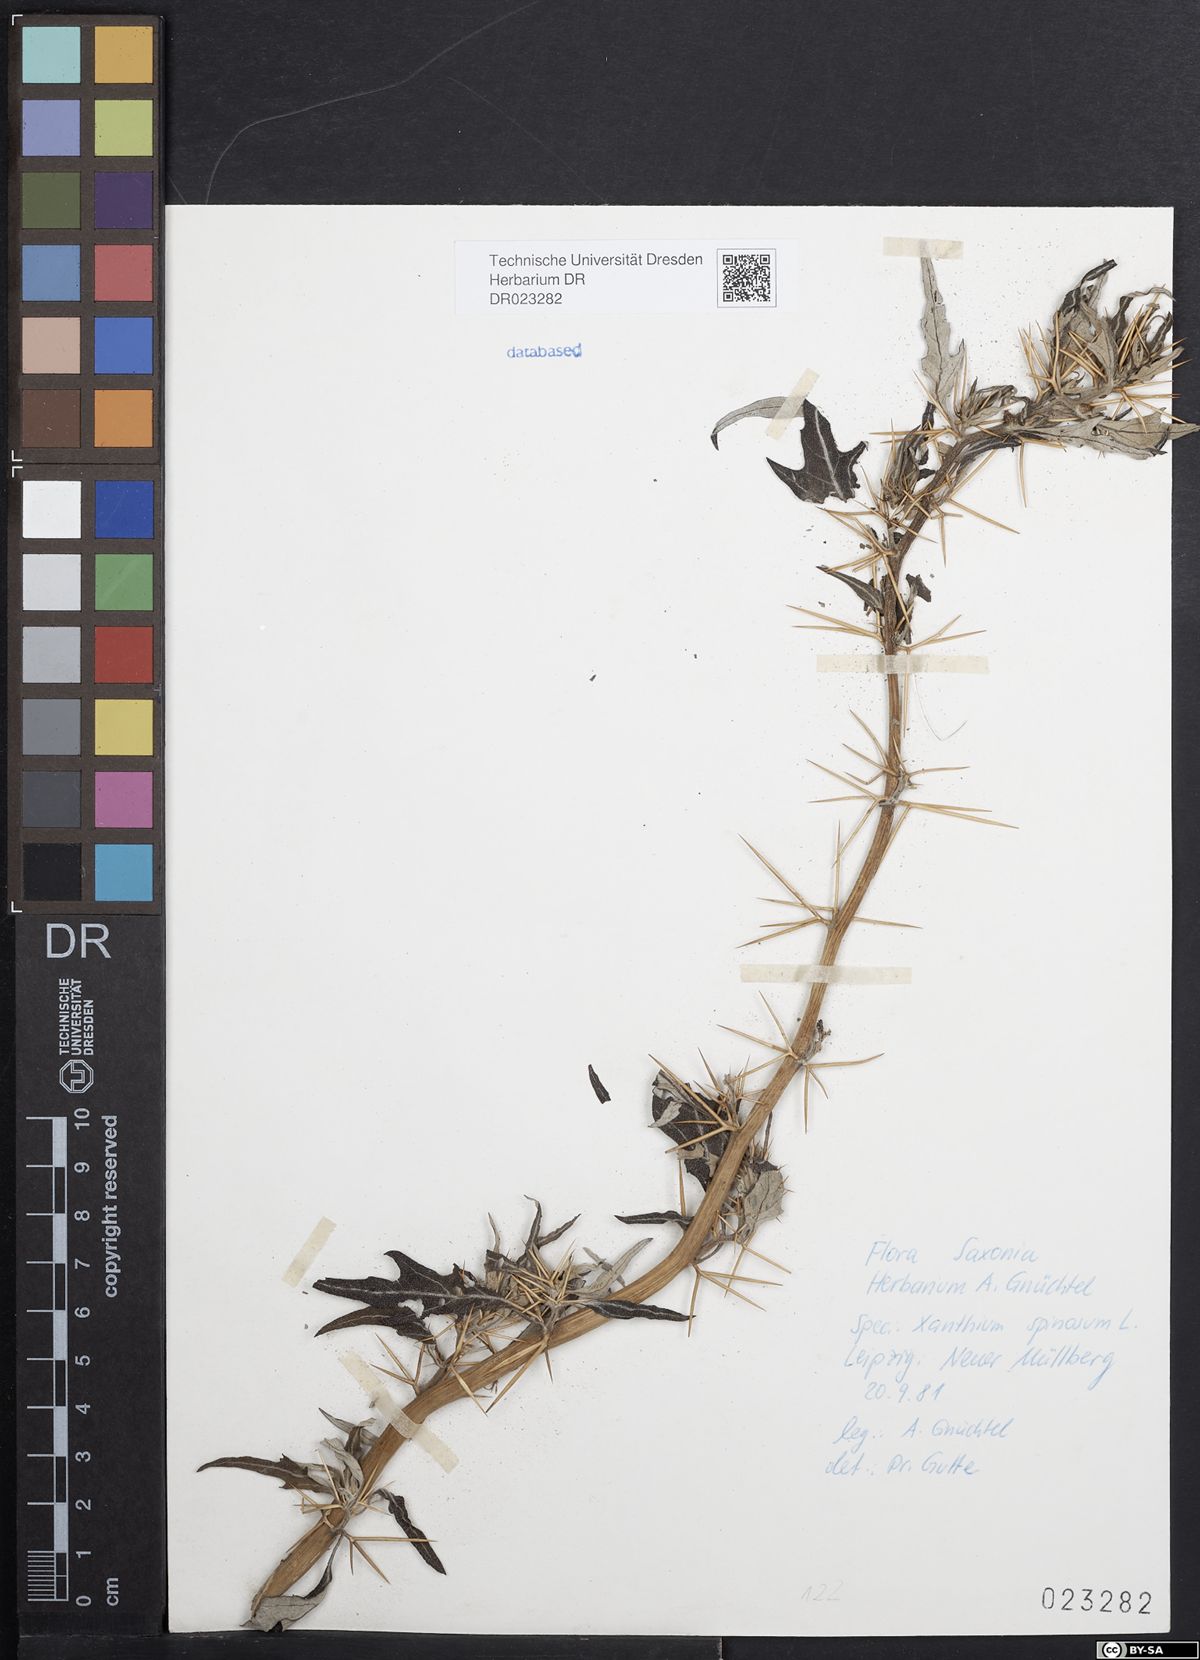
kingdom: Plantae
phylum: Tracheophyta
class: Magnoliopsida
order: Asterales
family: Asteraceae
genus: Xanthium
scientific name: Xanthium spinosum
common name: Spiny cocklebur
